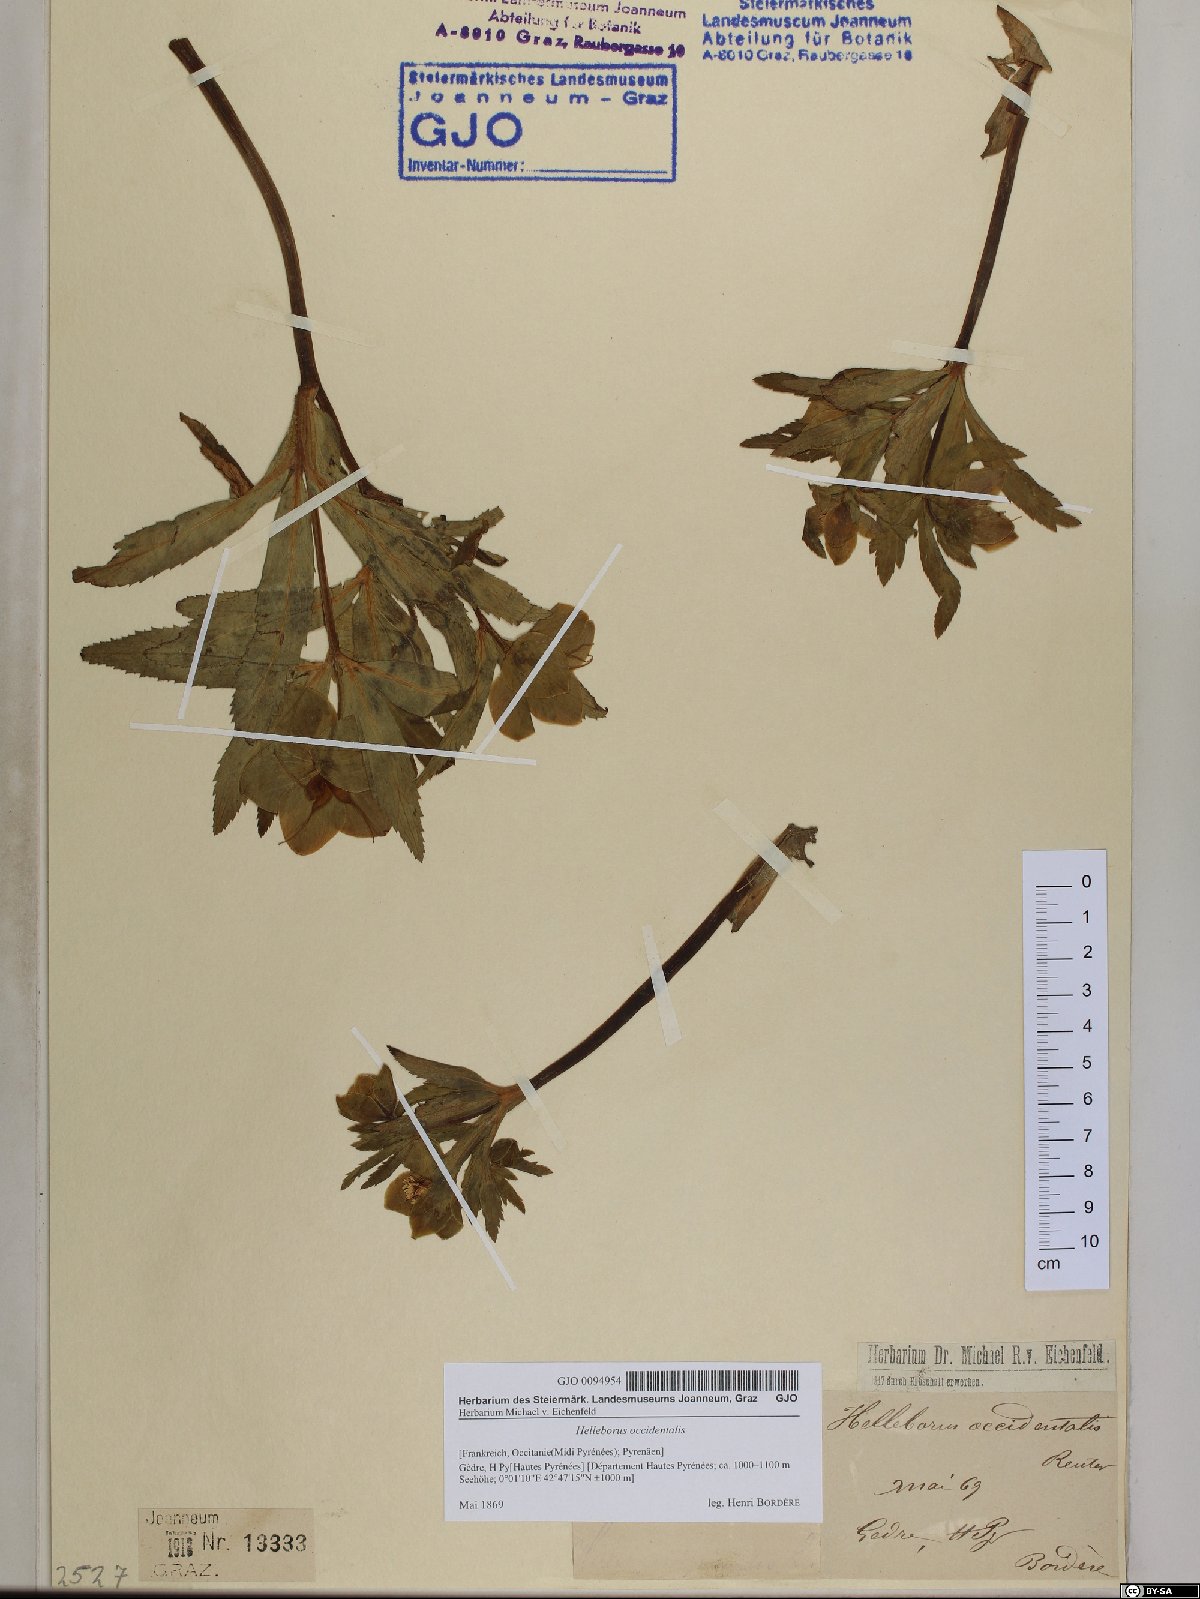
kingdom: Plantae
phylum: Tracheophyta
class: Magnoliopsida
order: Ranunculales
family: Ranunculaceae
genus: Helleborus
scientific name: Helleborus viridis
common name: Green hellebore
